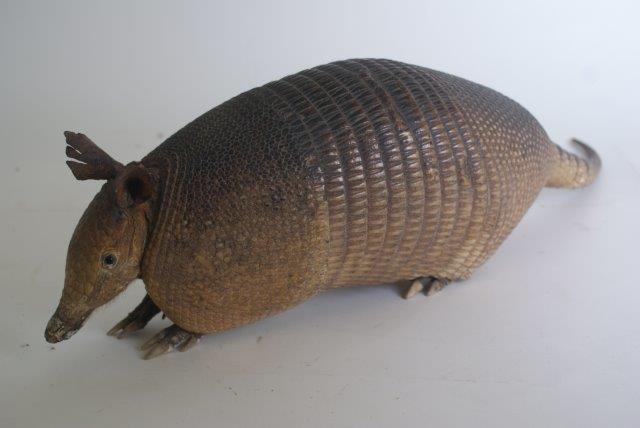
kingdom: Animalia
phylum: Chordata
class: Mammalia
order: Cingulata
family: Dasypodidae
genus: Dasypus
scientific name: Dasypus novemcinctus
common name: Nine-banded Armadillo
